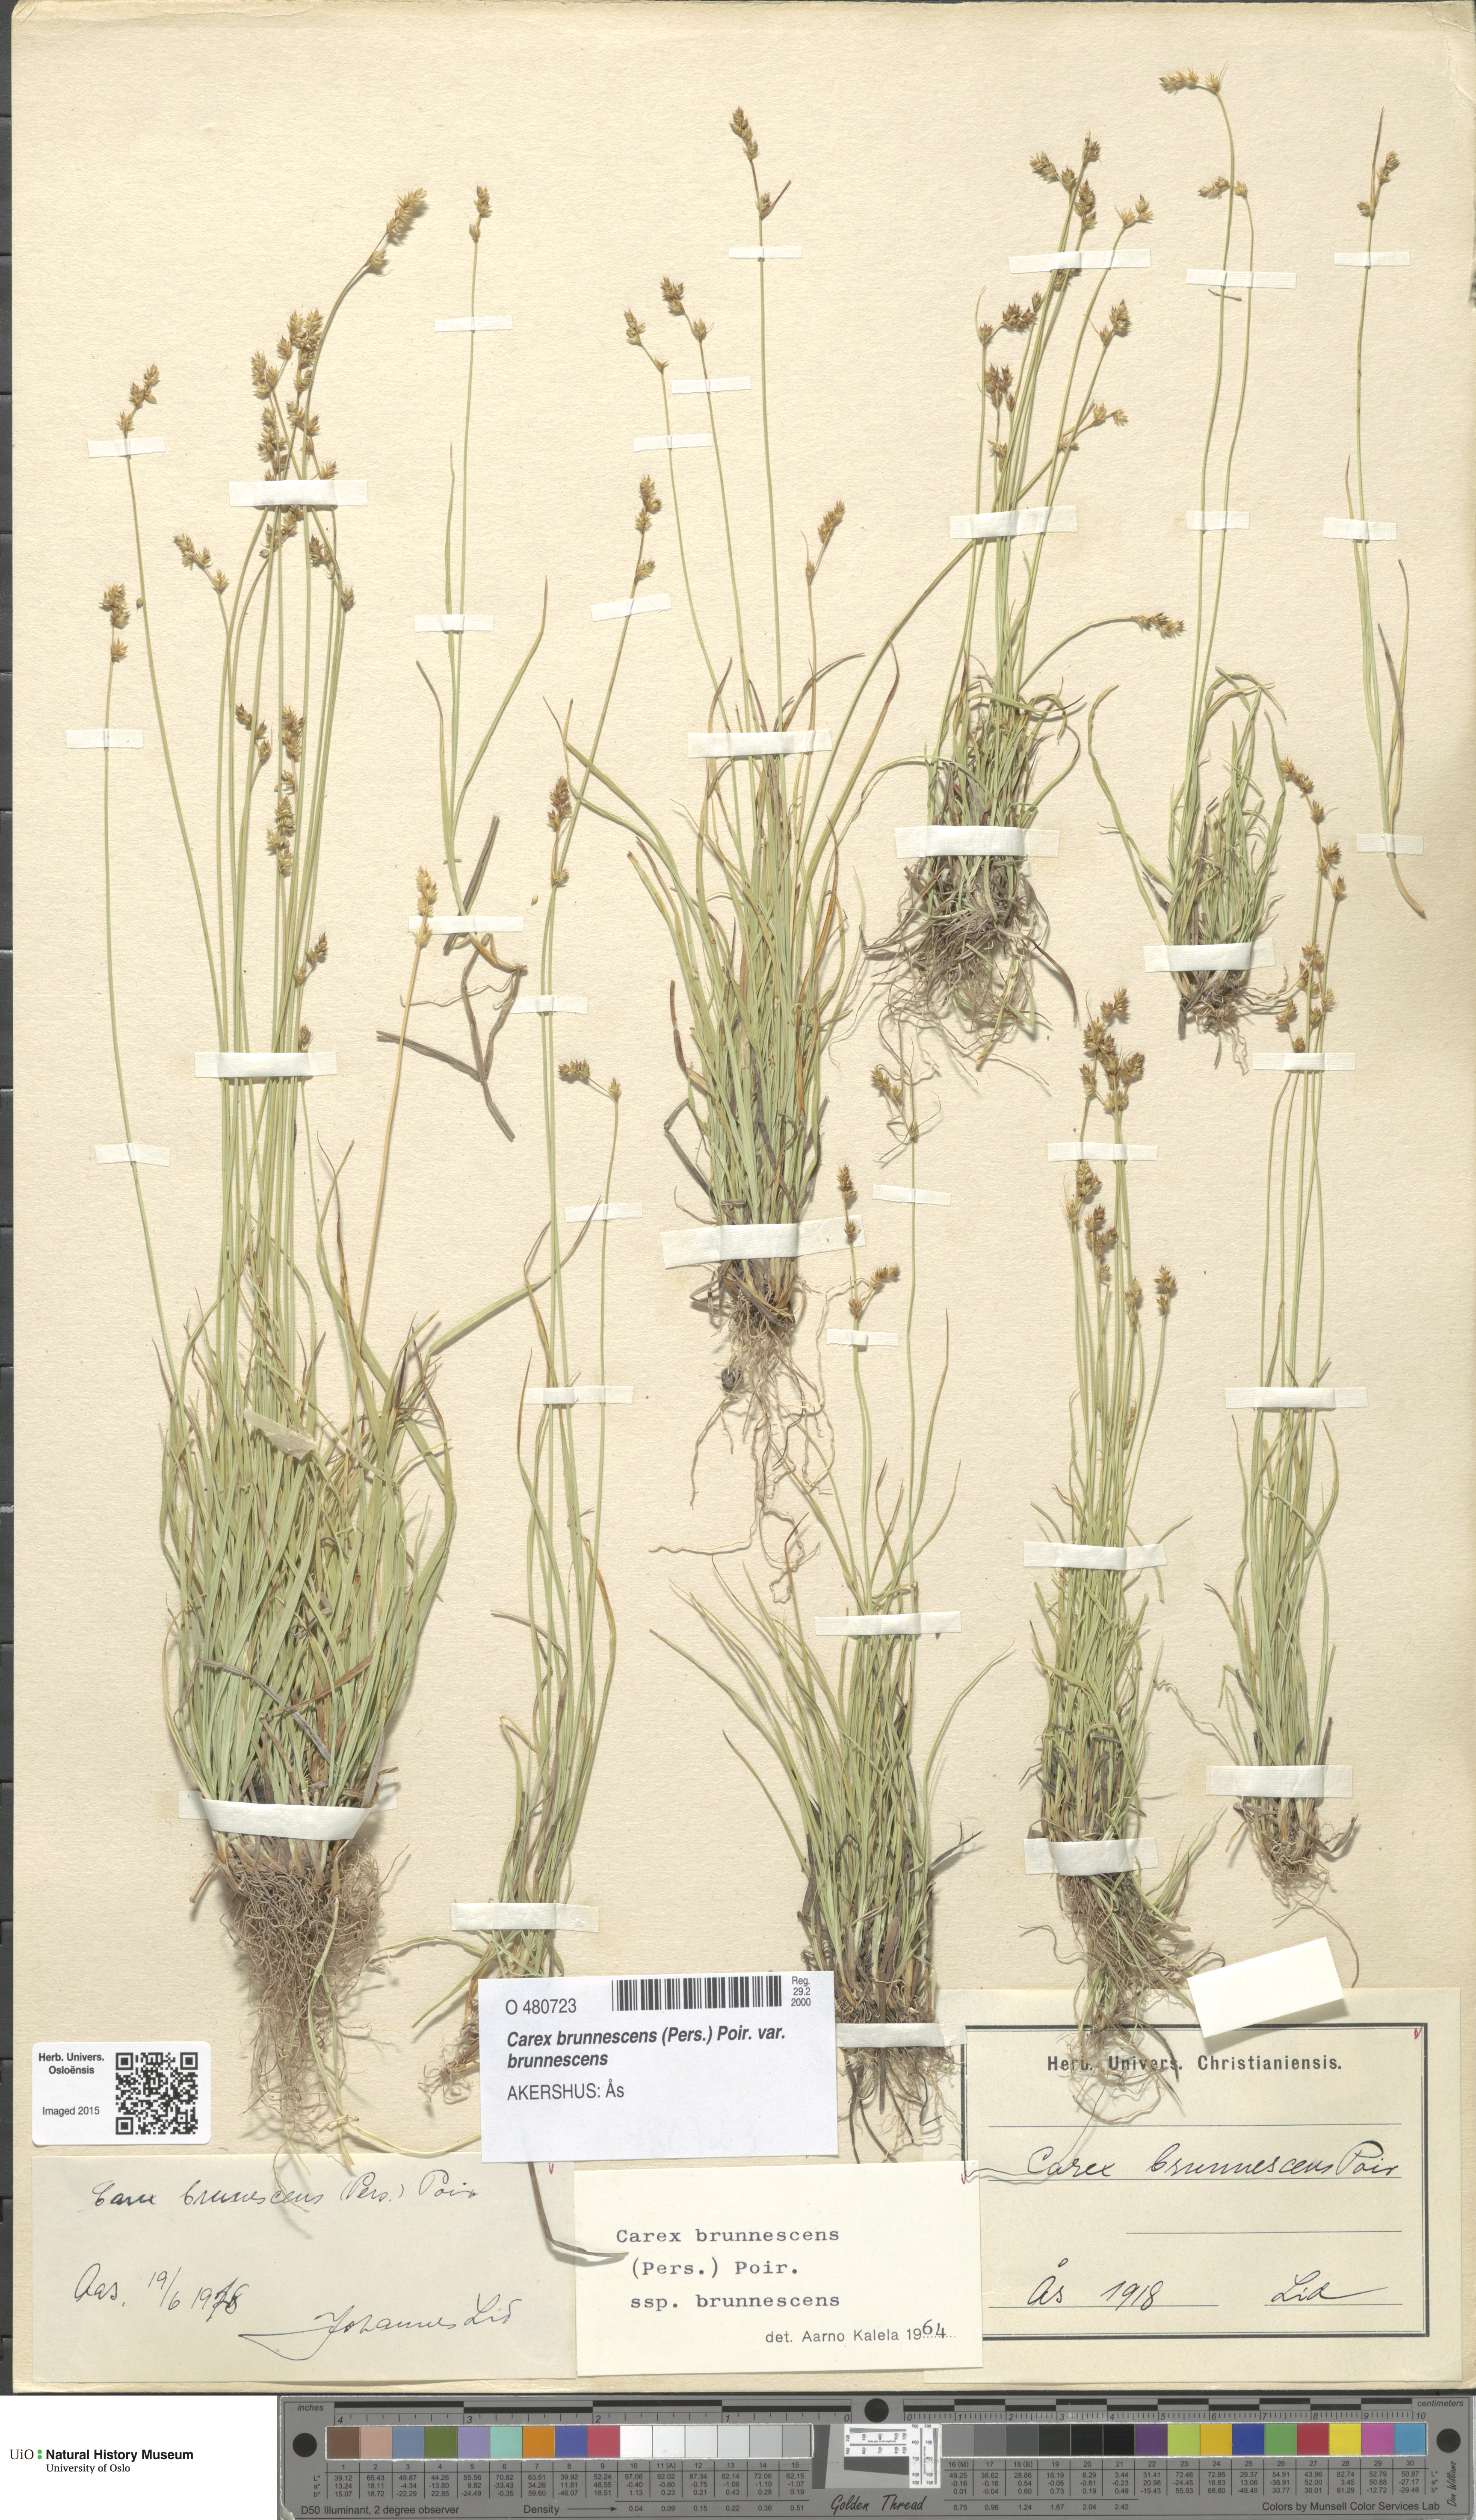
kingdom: Plantae
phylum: Tracheophyta
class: Liliopsida
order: Poales
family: Cyperaceae
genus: Carex
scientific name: Carex brunnescens
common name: Brown sedge
